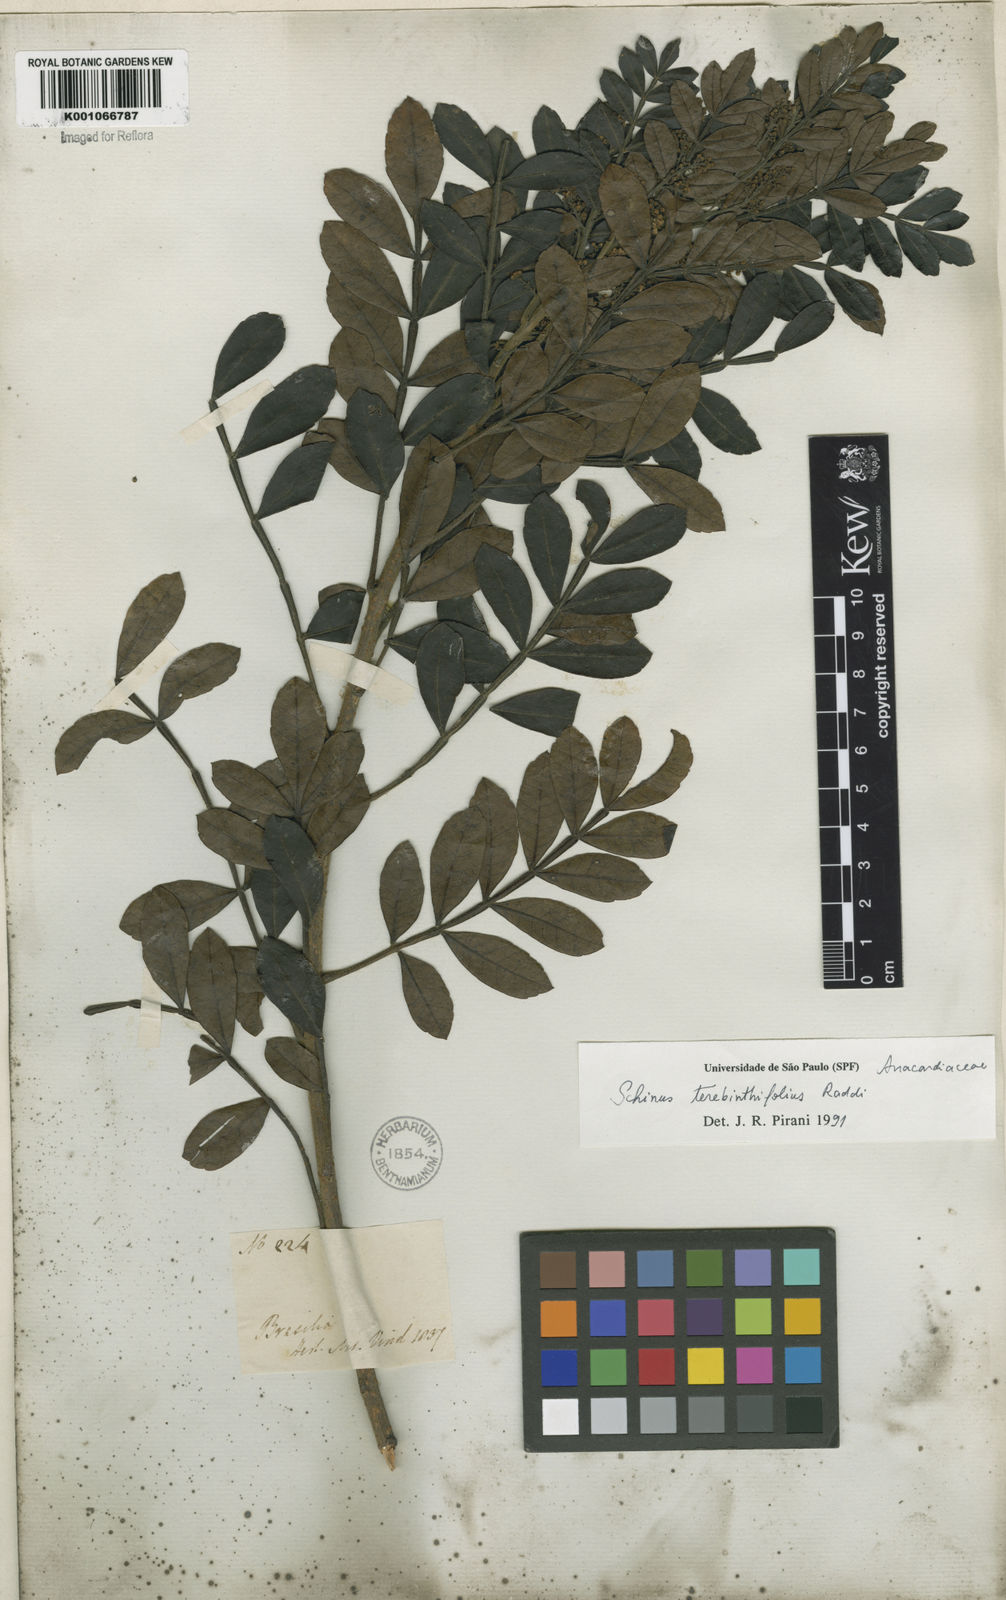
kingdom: Plantae
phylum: Tracheophyta
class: Magnoliopsida
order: Sapindales
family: Anacardiaceae
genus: Schinus
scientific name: Schinus terebinthifolia
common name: Brazilian peppertree
